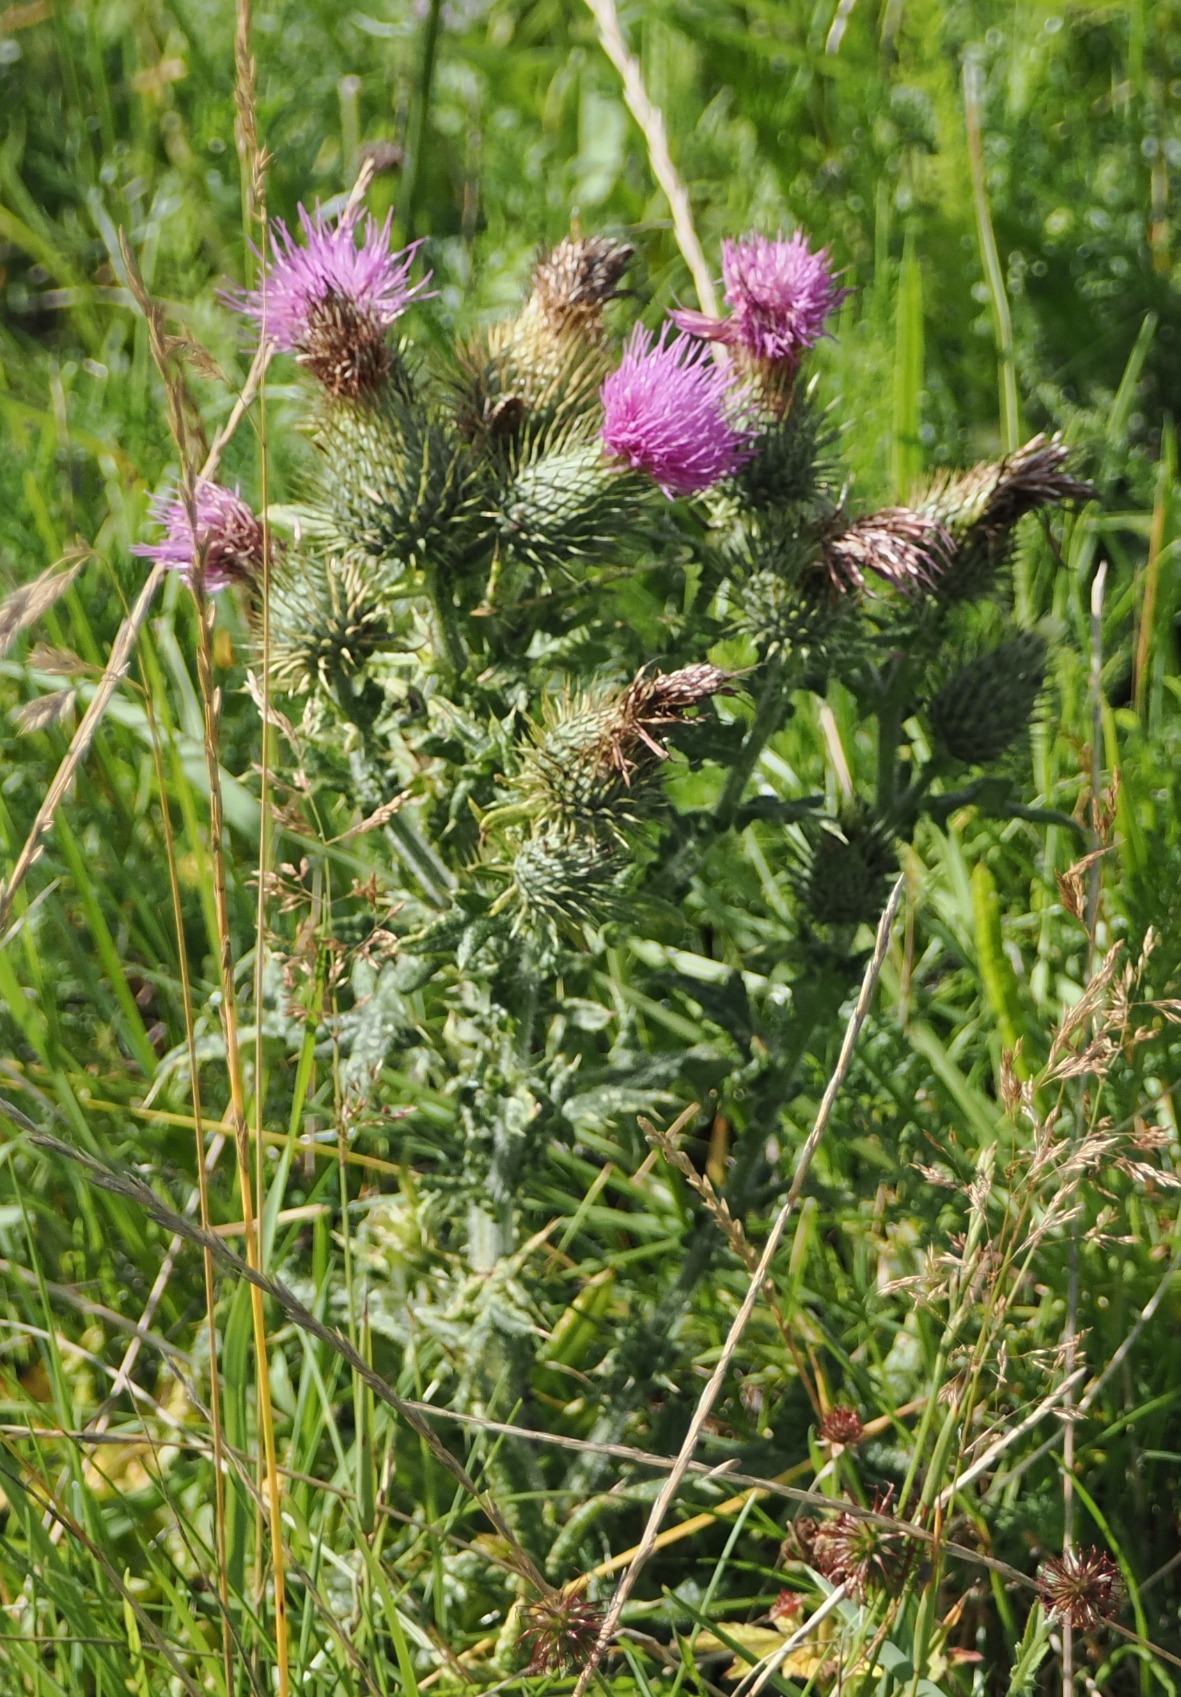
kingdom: Plantae
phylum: Tracheophyta
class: Magnoliopsida
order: Asterales
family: Asteraceae
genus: Cirsium
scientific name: Cirsium vulgare
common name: Horse-tidsel
